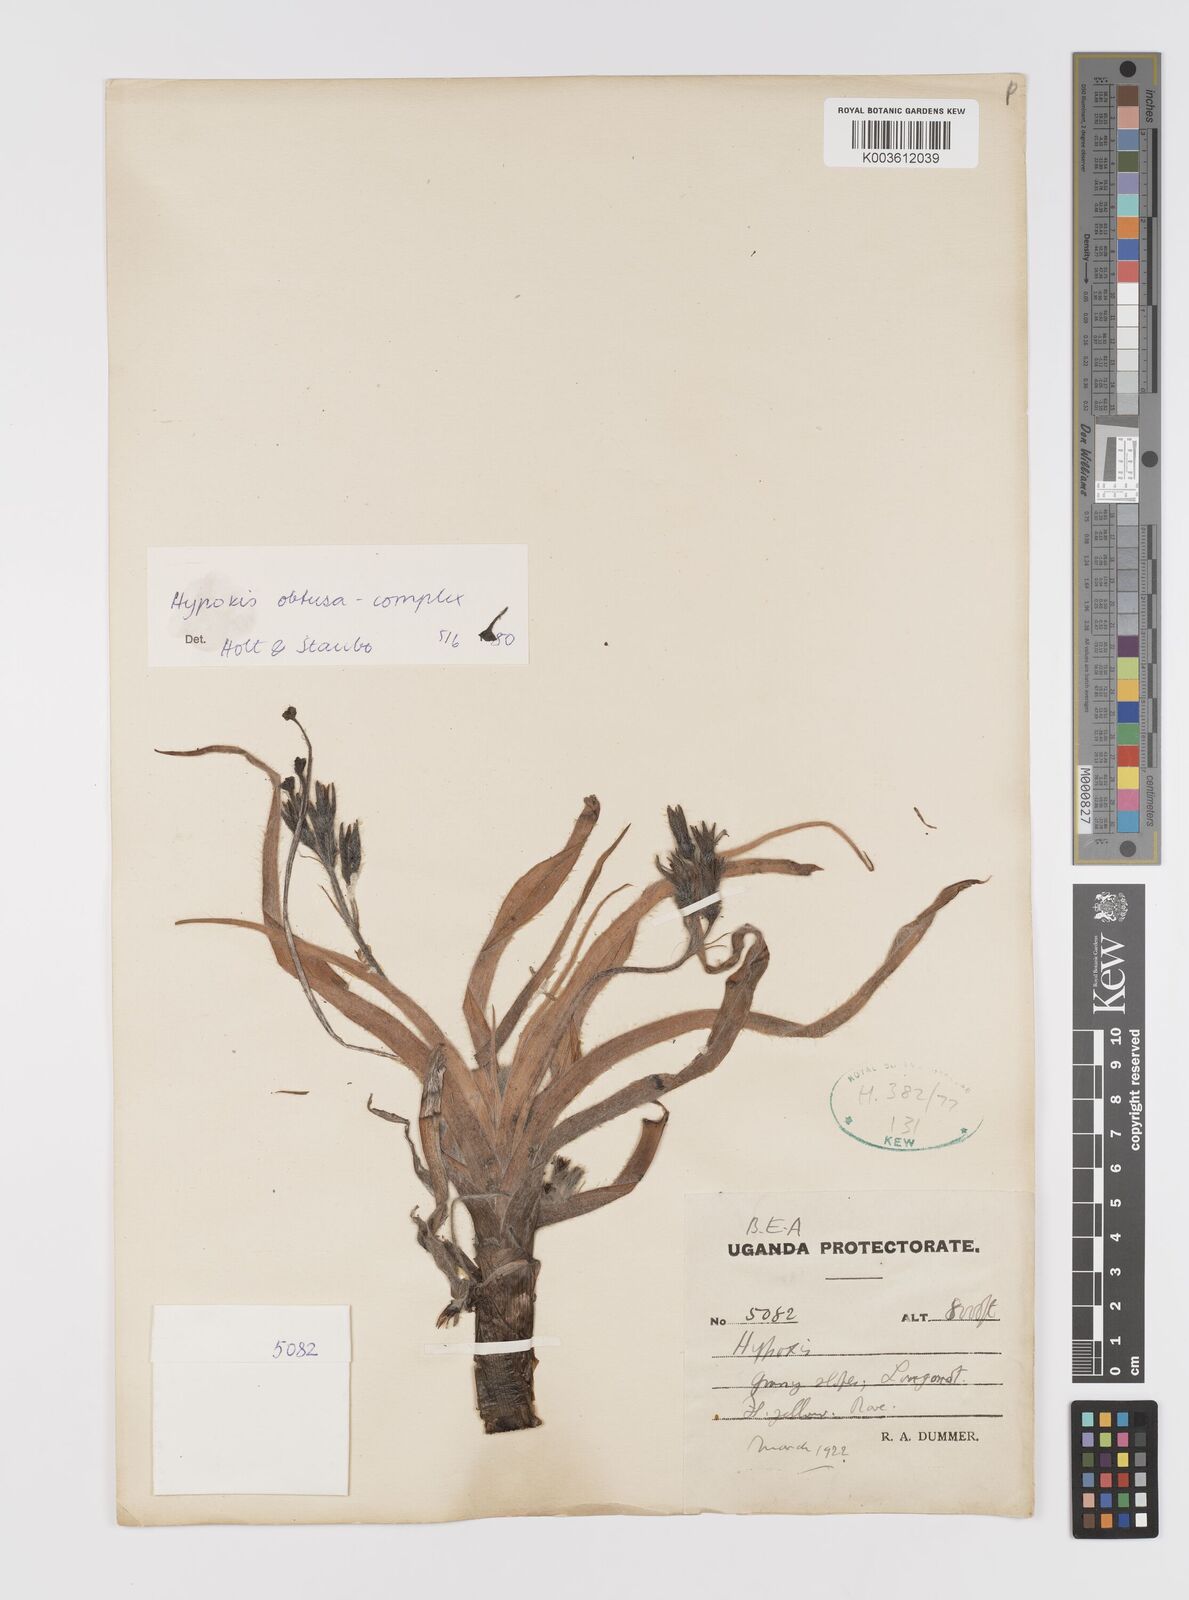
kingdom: Plantae
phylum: Tracheophyta
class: Liliopsida
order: Asparagales
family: Hypoxidaceae
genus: Hypoxis
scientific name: Hypoxis gregoriana
